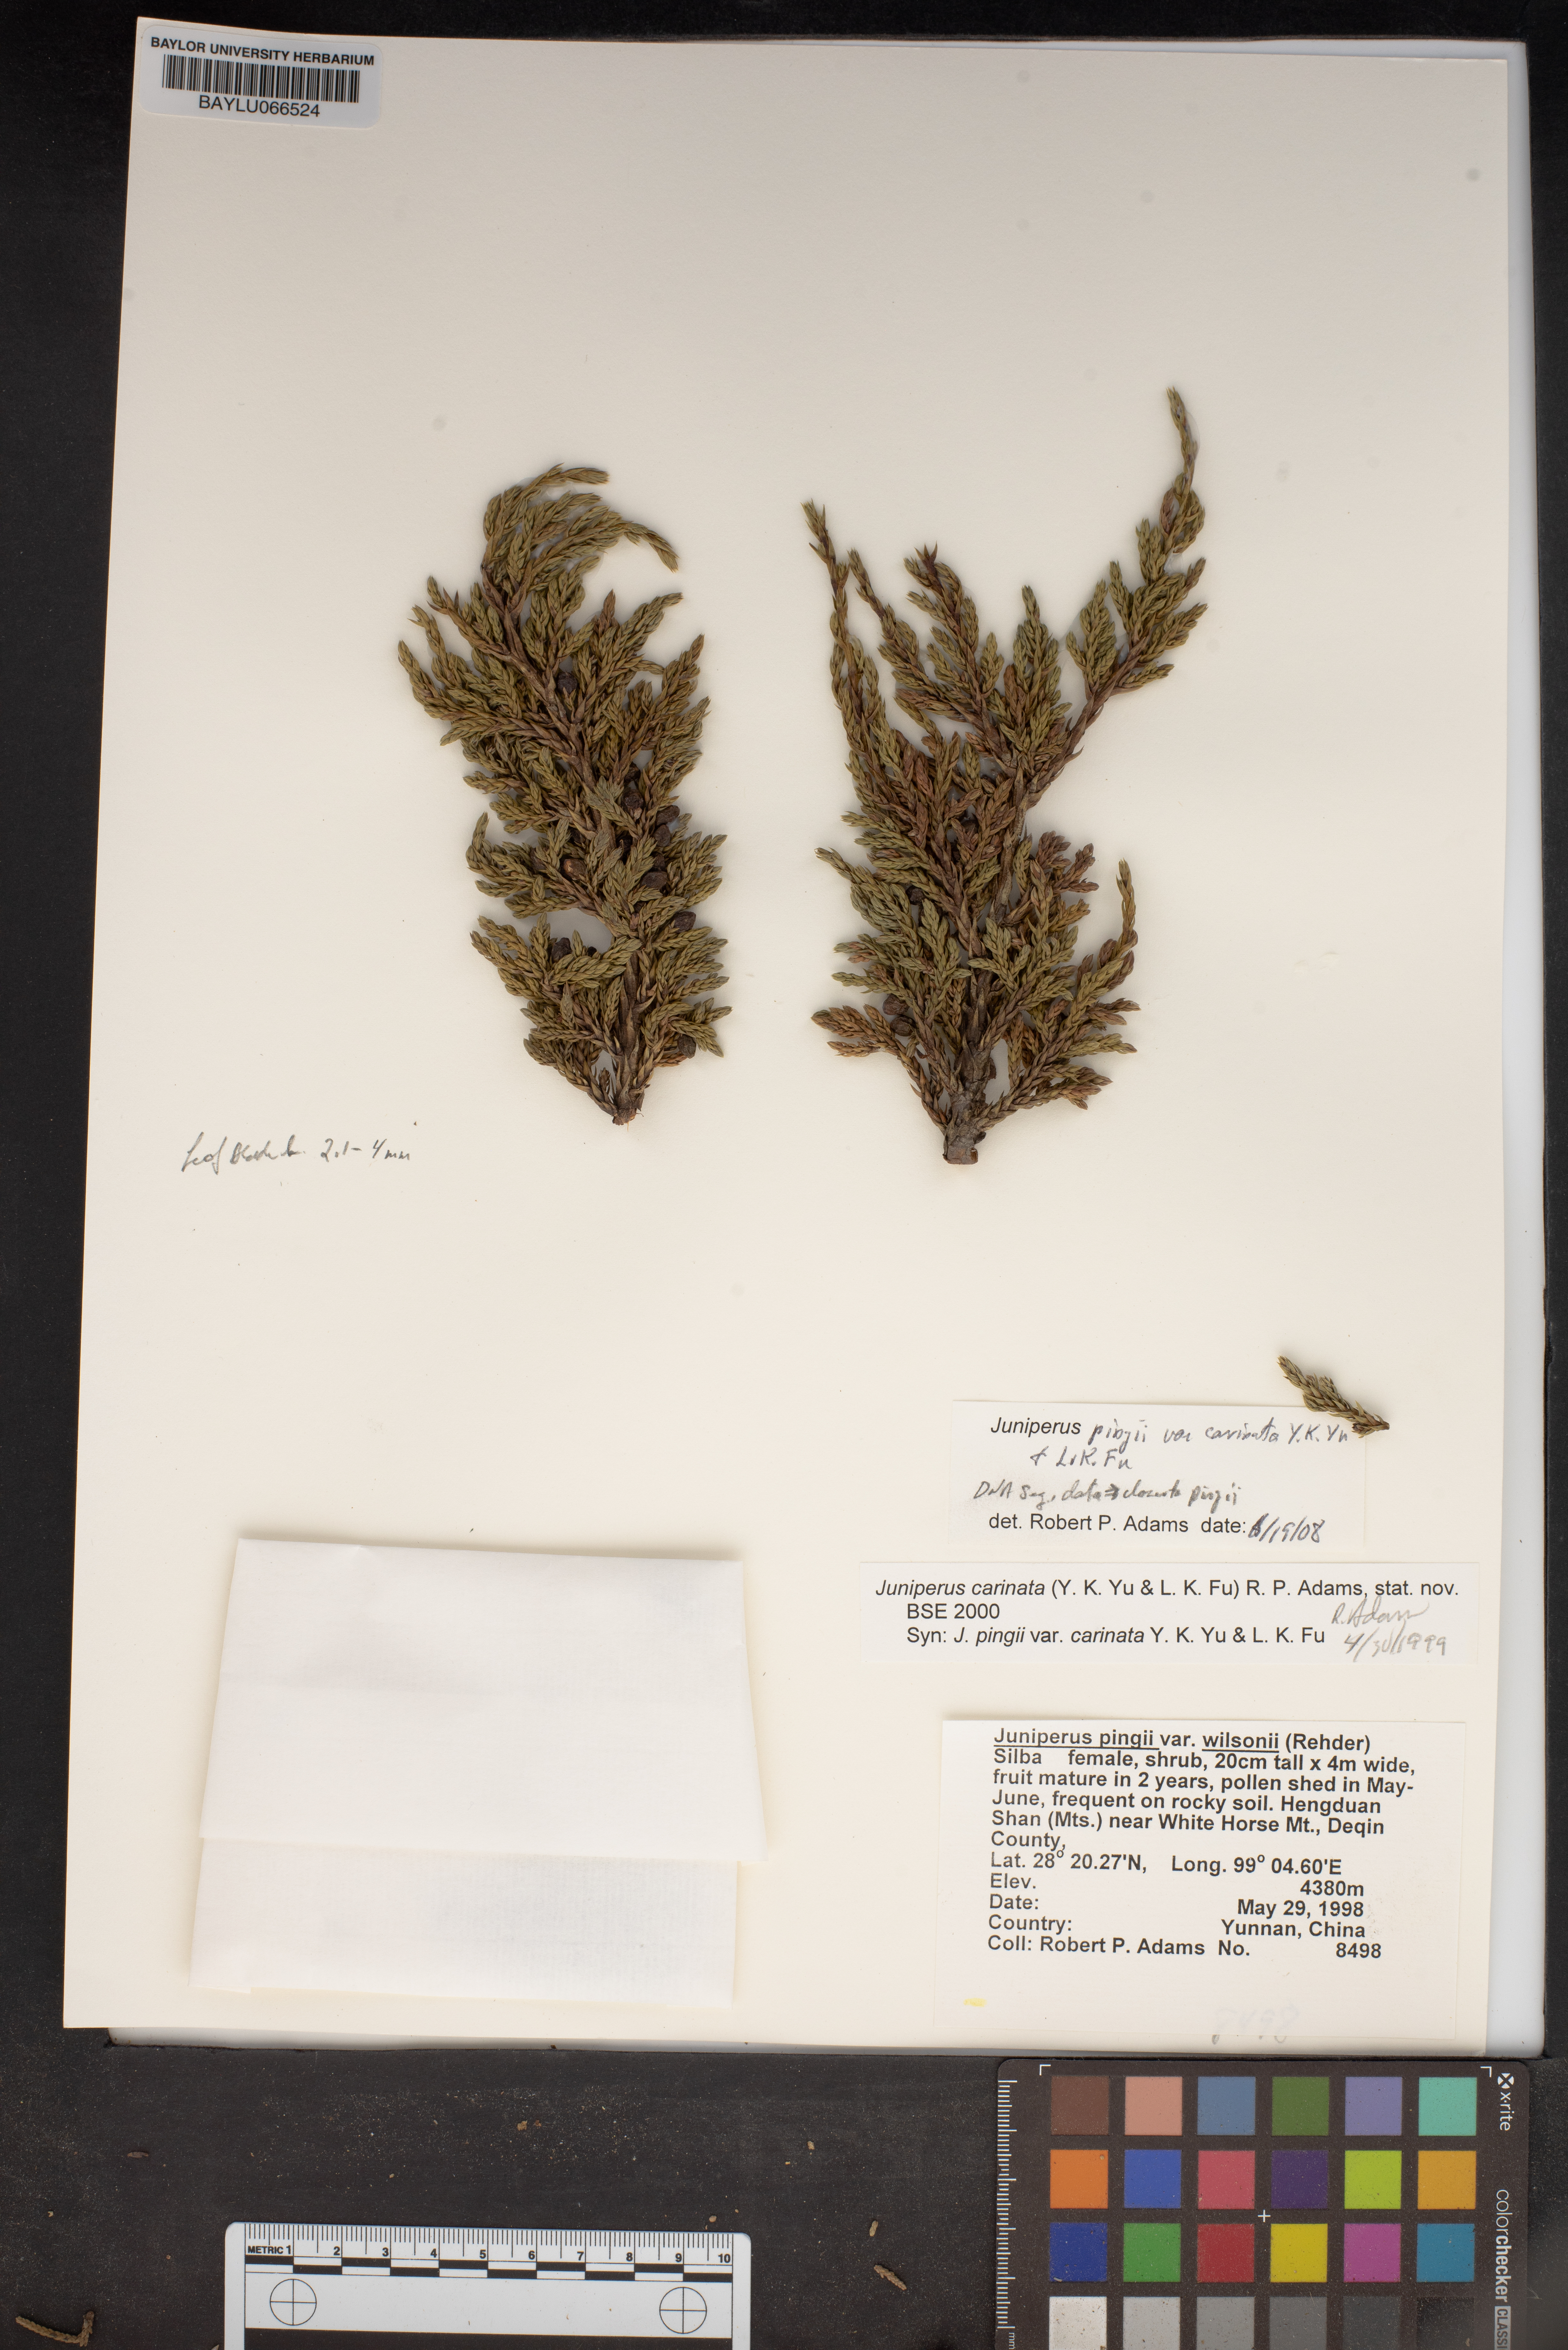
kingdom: Plantae
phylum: Tracheophyta
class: Pinopsida
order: Pinales
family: Cupressaceae
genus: Juniperus
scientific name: Juniperus pingii
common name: Ping's juniper
